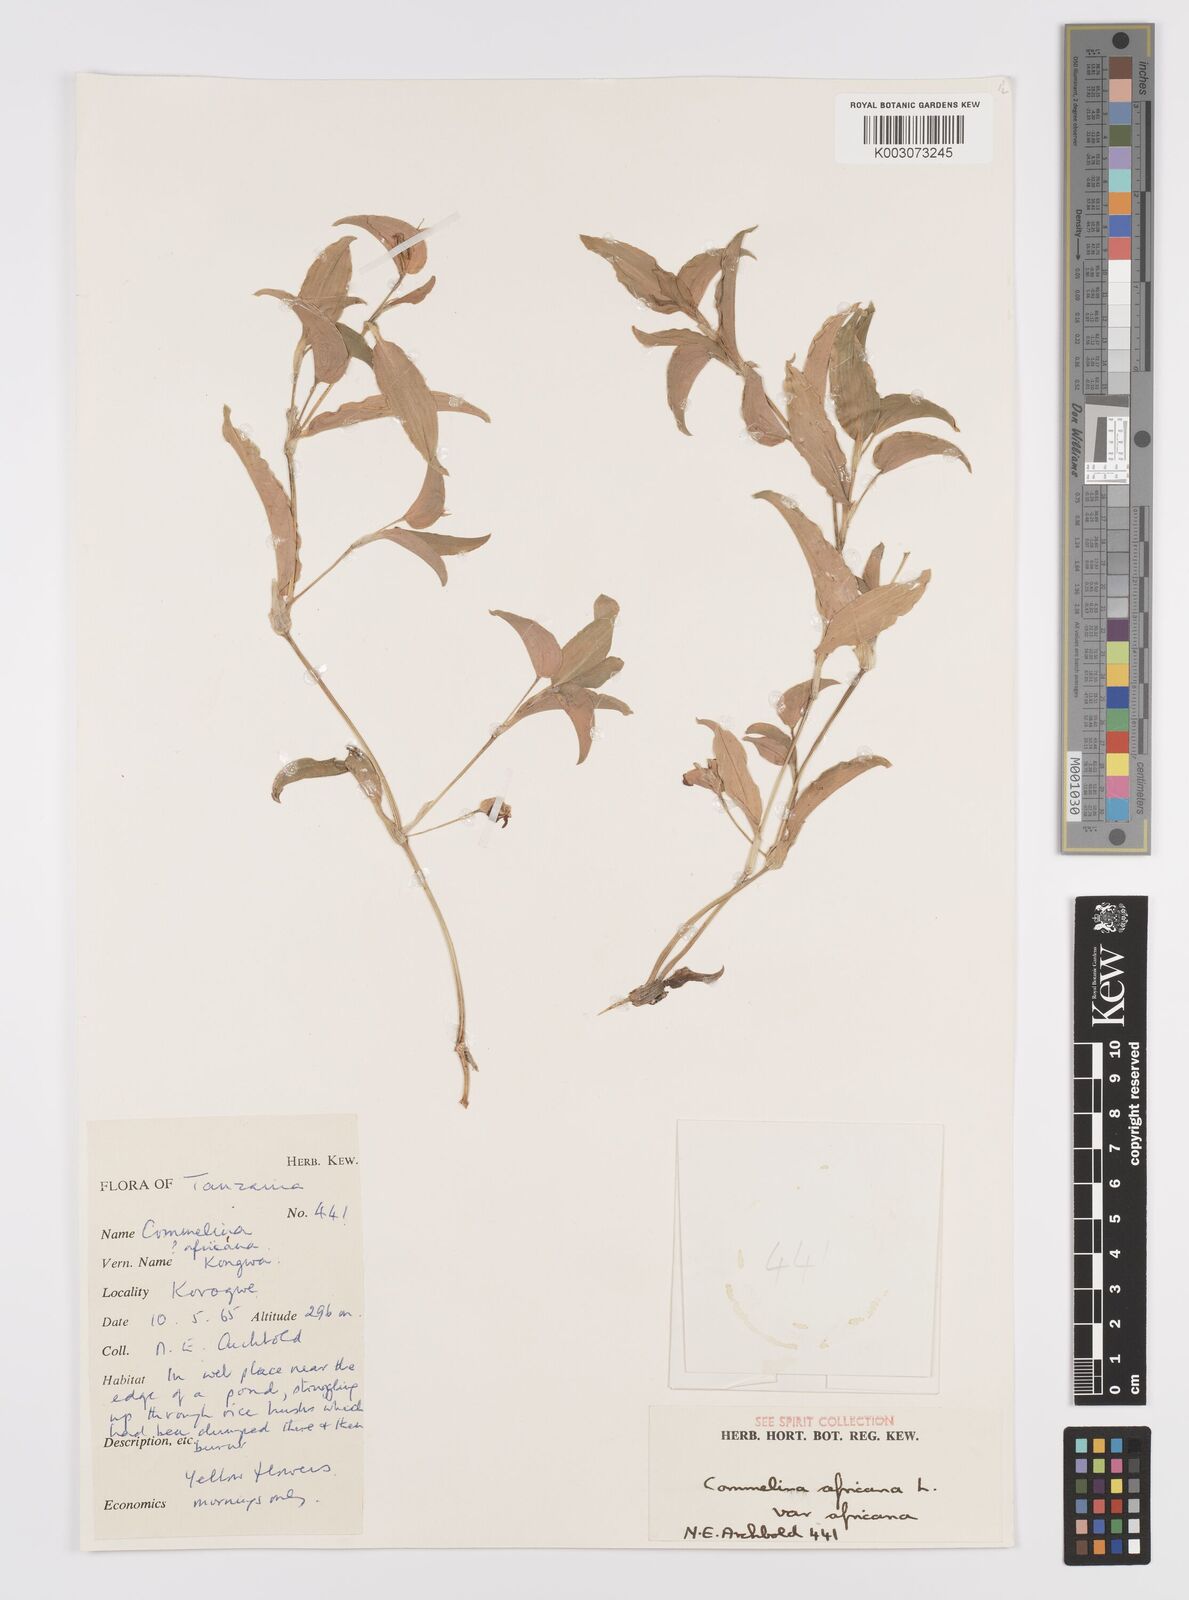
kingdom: Plantae
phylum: Tracheophyta
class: Liliopsida
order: Commelinales
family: Commelinaceae
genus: Commelina
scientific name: Commelina africana
